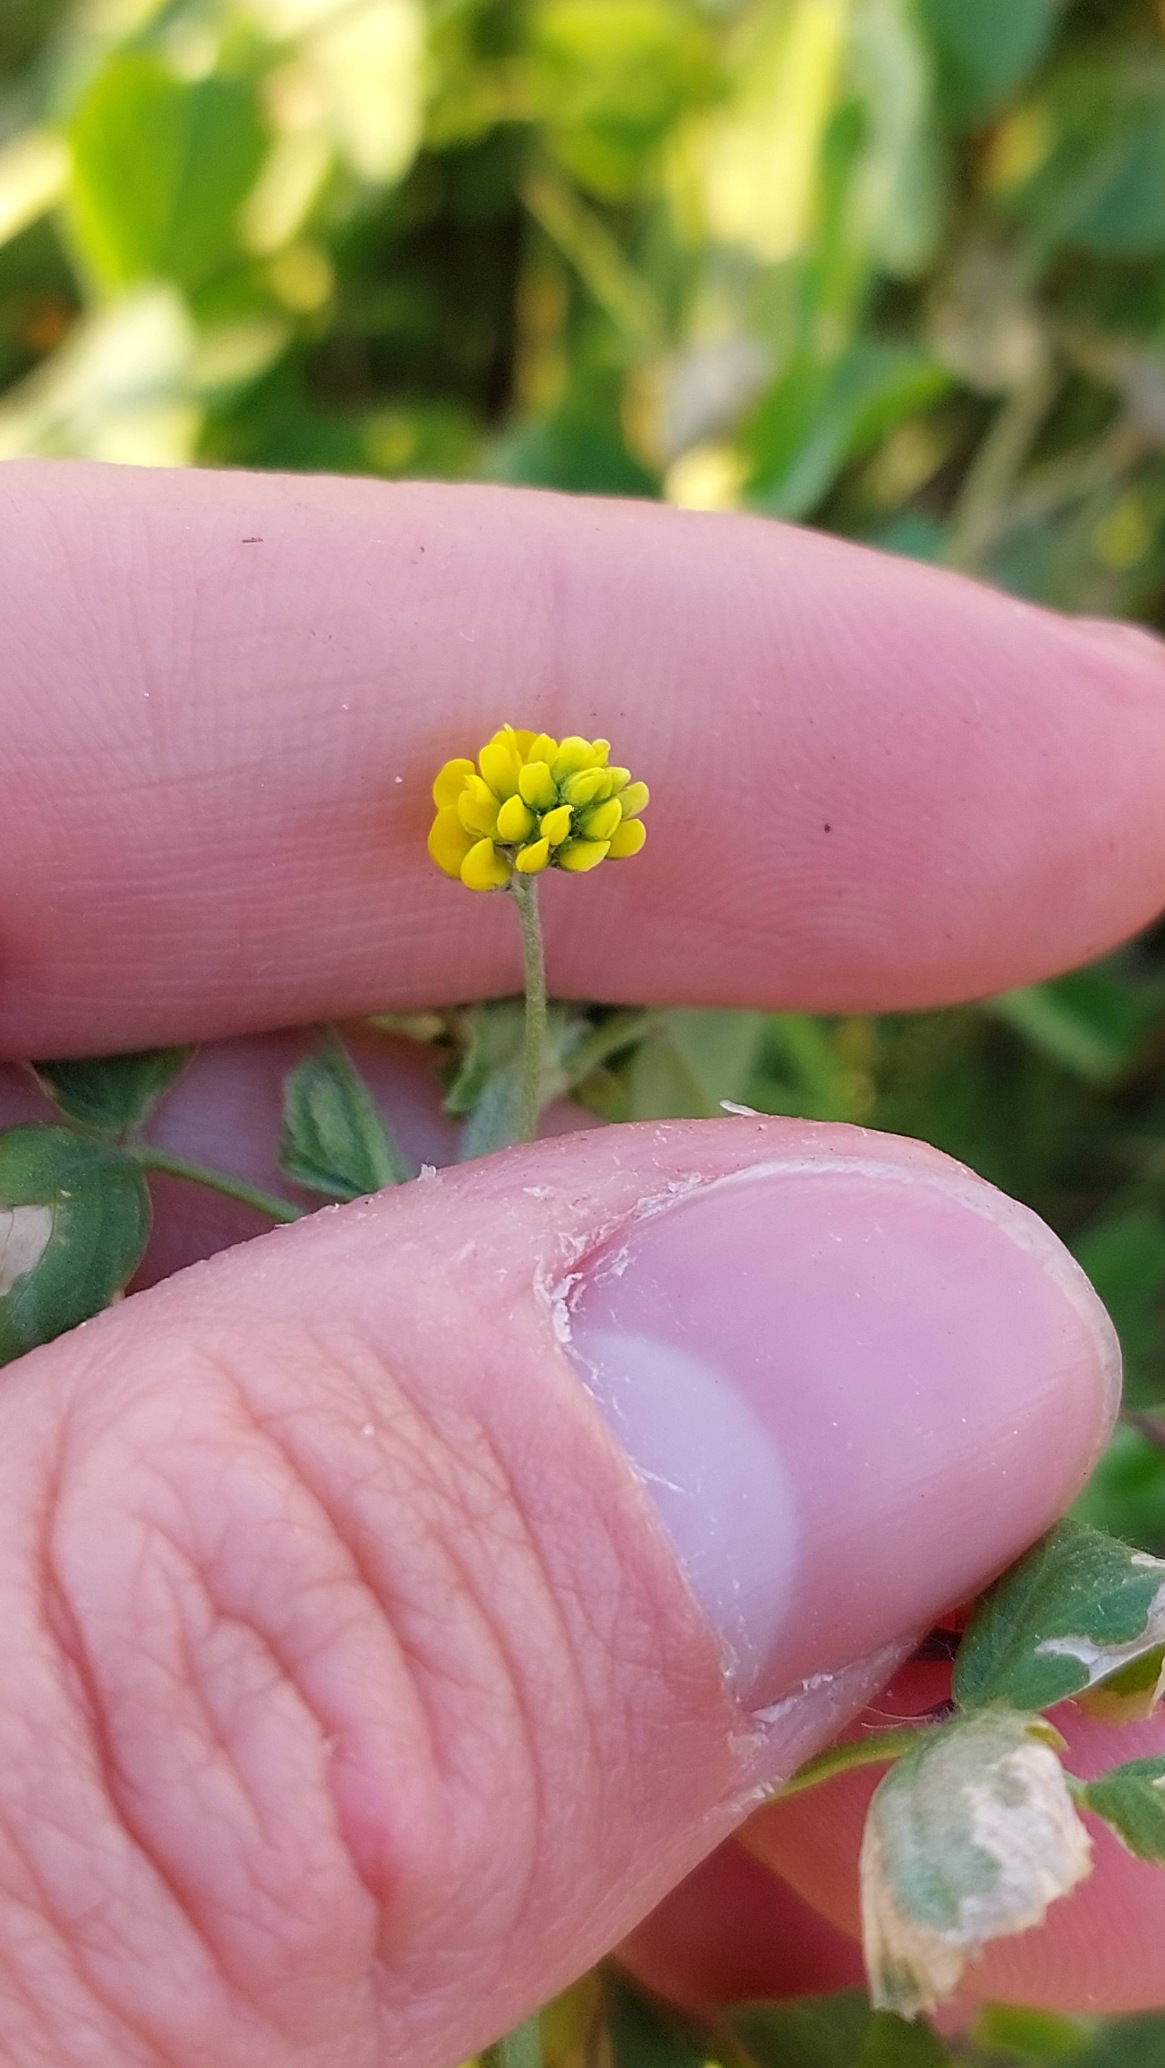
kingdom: Plantae
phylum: Tracheophyta
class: Magnoliopsida
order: Fabales
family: Fabaceae
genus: Medicago
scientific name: Medicago lupulina
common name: Humle-sneglebælg
